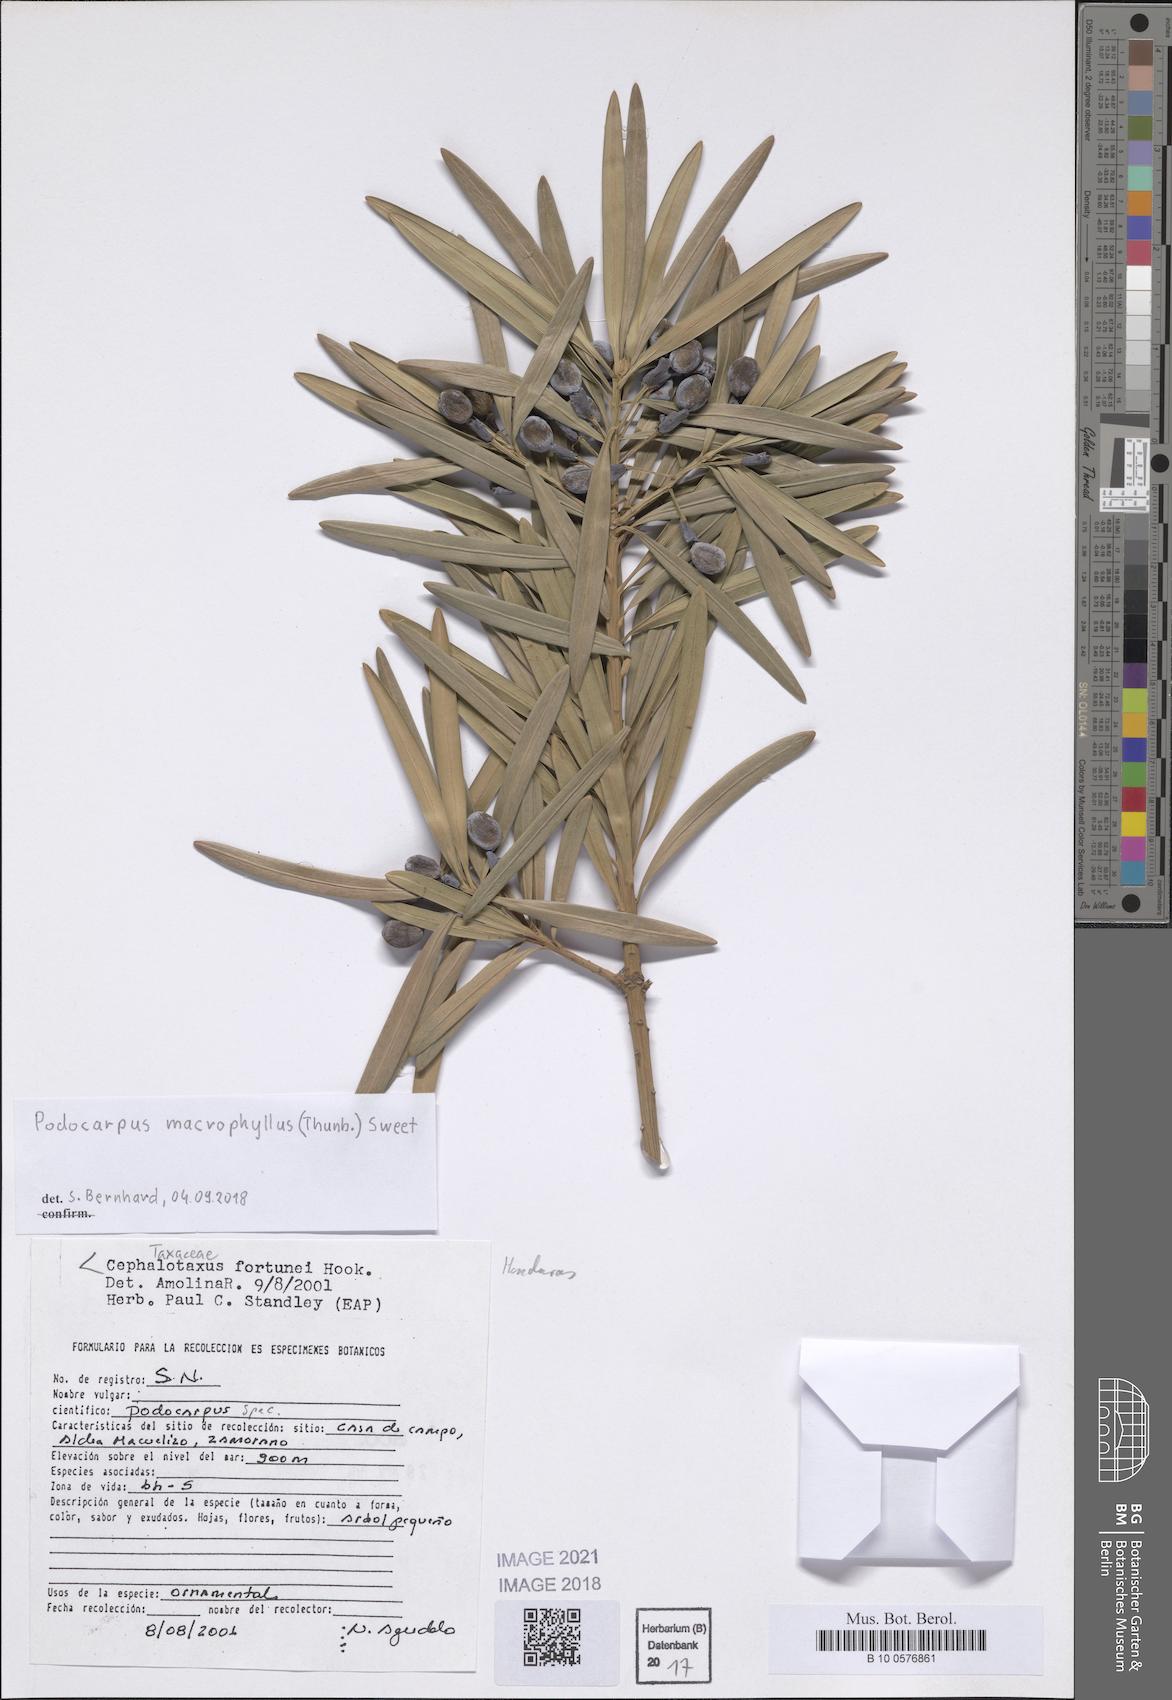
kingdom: Plantae
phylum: Tracheophyta
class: Pinopsida
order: Pinales
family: Podocarpaceae
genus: Podocarpus
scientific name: Podocarpus macrophyllus
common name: Japanese yew
